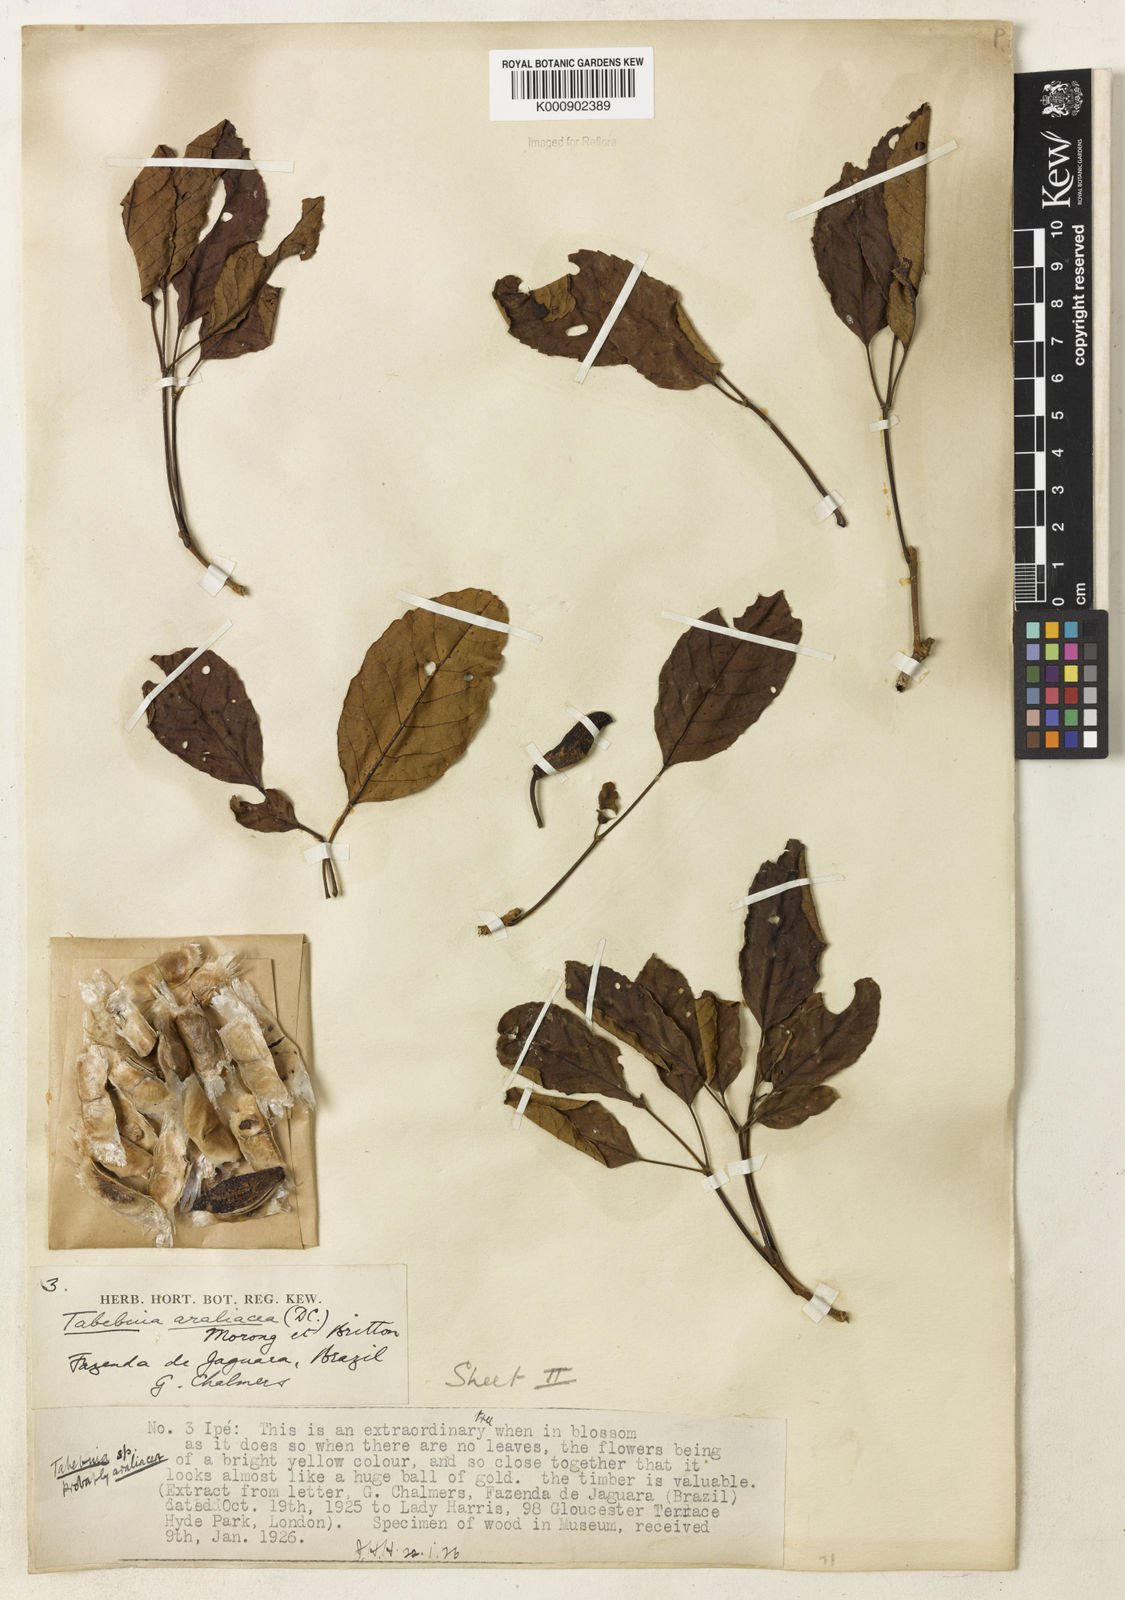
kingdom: Plantae
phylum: Tracheophyta
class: Magnoliopsida
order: Lamiales
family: Bignoniaceae
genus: Handroanthus
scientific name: Handroanthus serratifolius
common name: Yellow ipe
